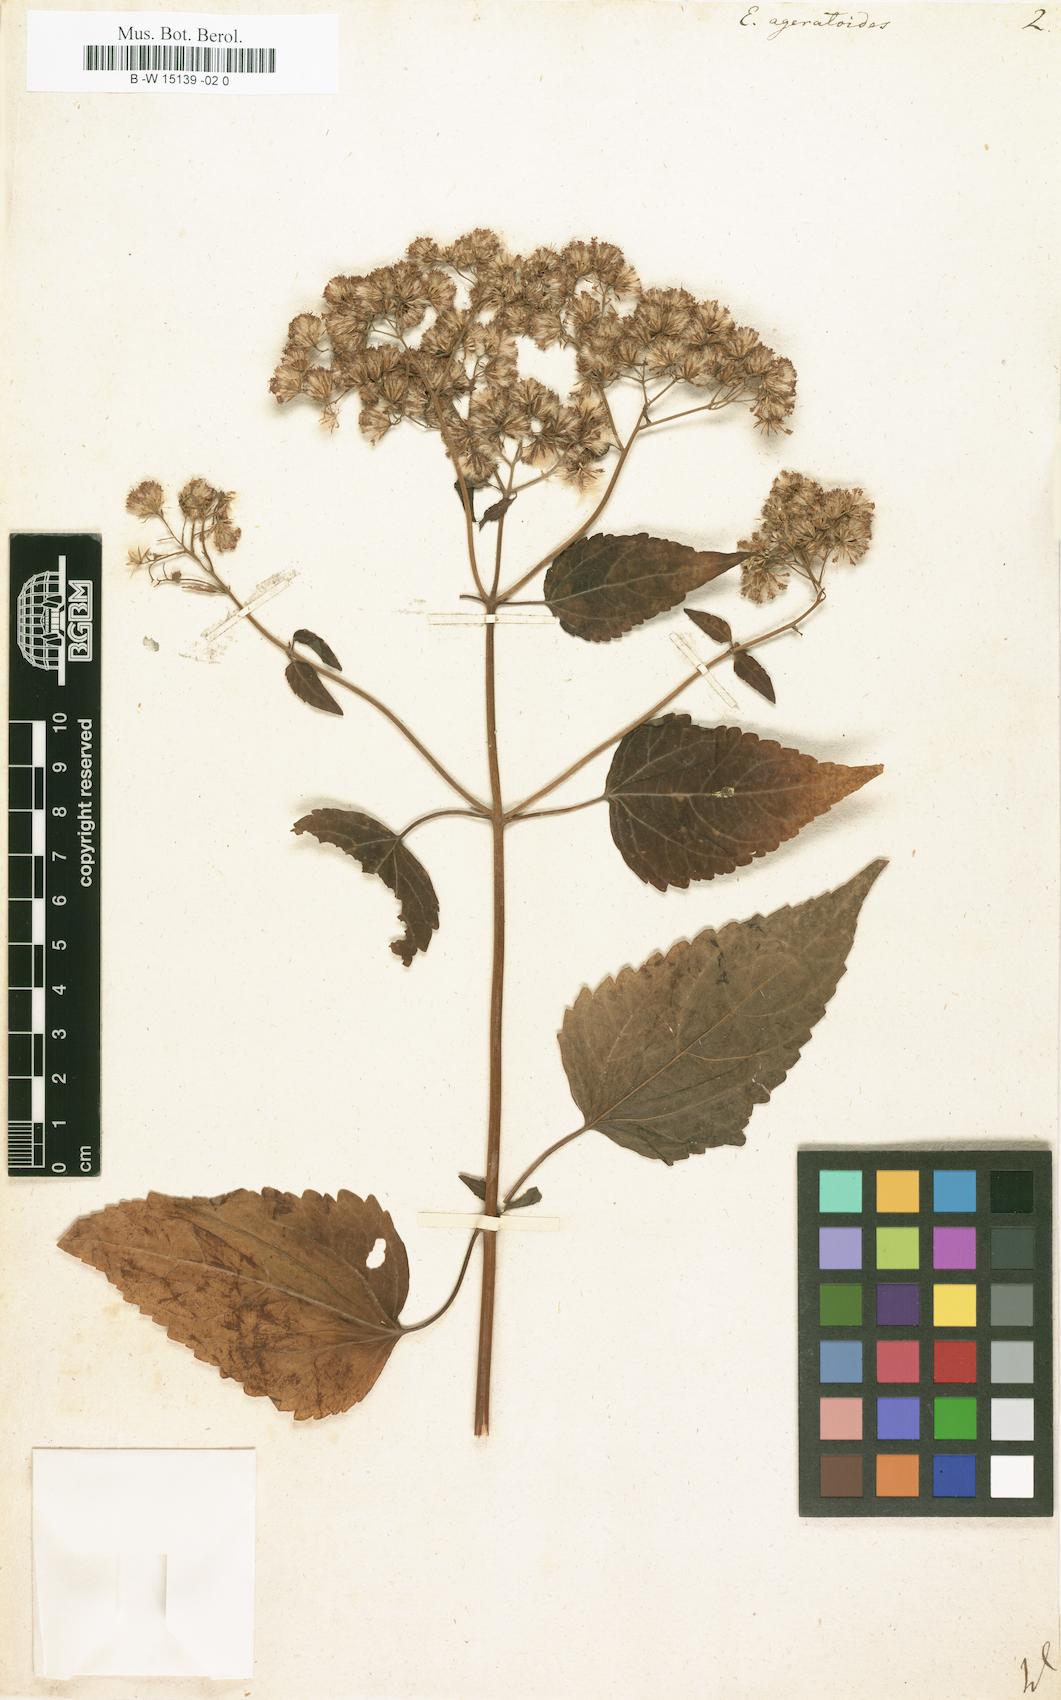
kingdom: Plantae
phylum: Tracheophyta
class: Magnoliopsida
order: Asterales
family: Asteraceae
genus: Ageratina
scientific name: Ageratina
